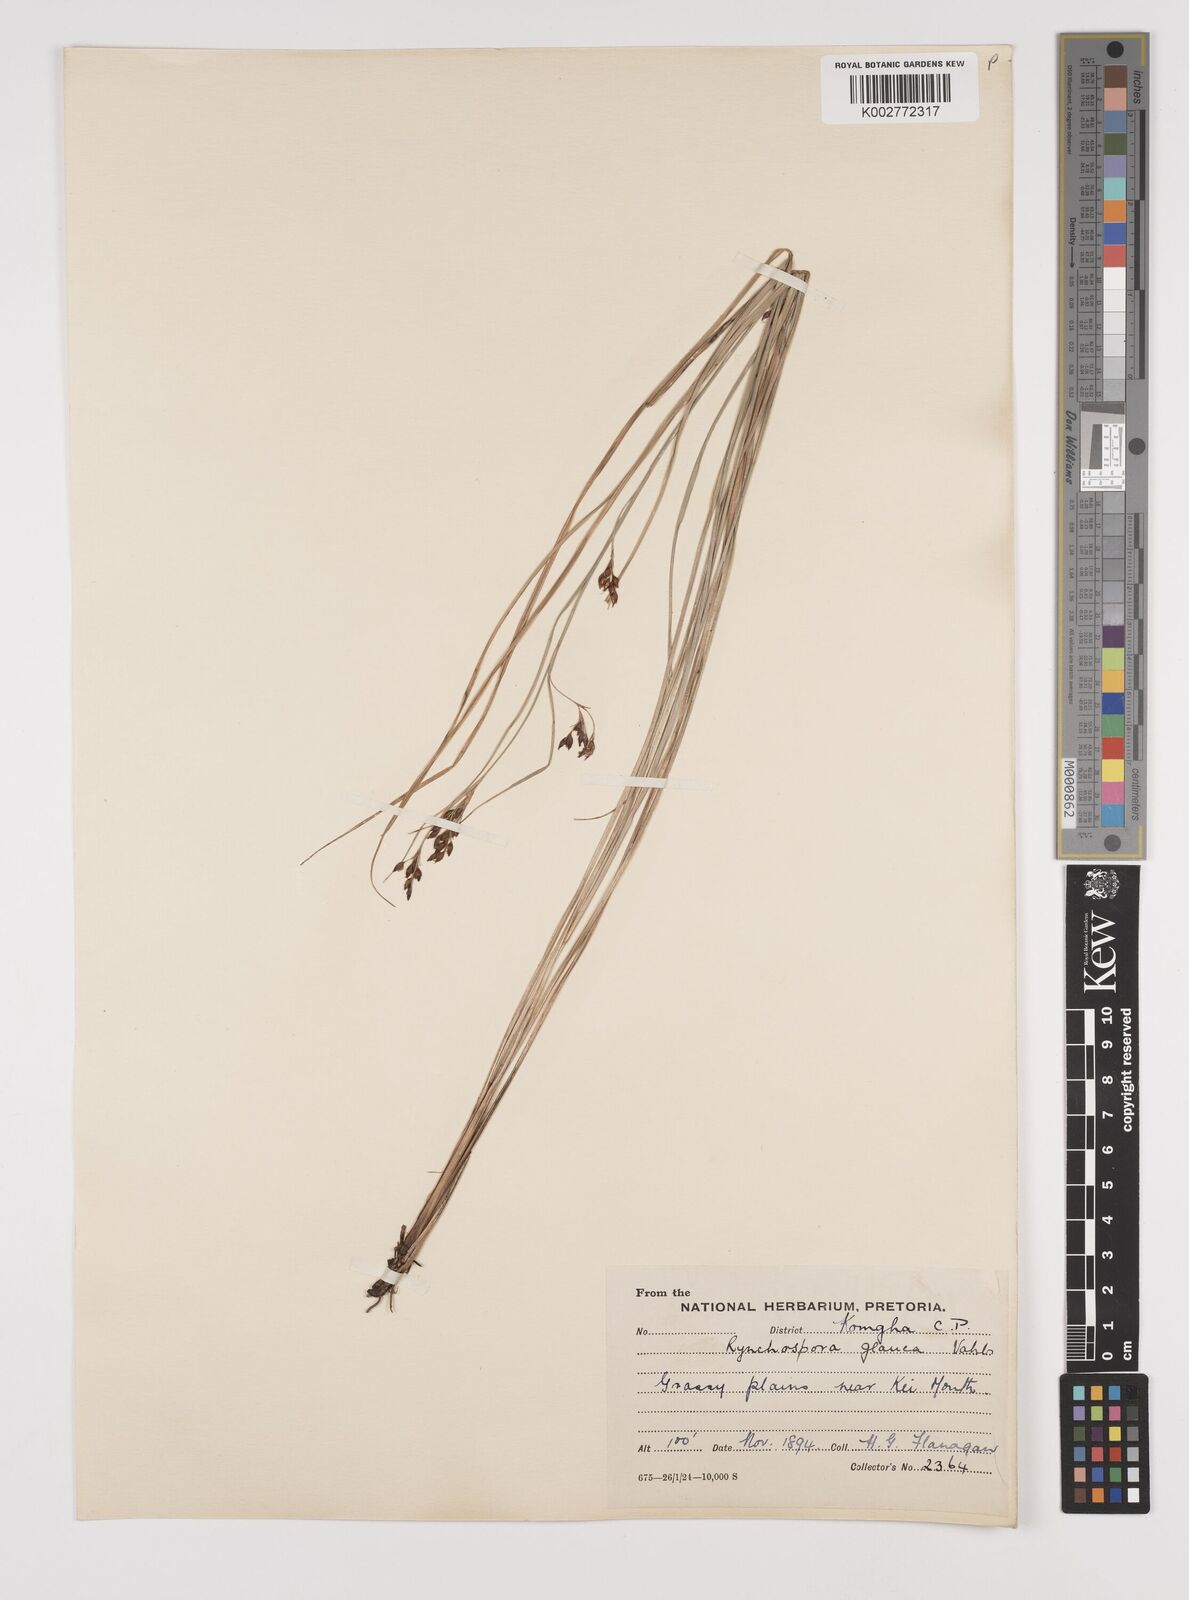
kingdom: Plantae
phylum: Tracheophyta
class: Liliopsida
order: Poales
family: Cyperaceae
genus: Rhynchospora
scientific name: Rhynchospora rugosa
